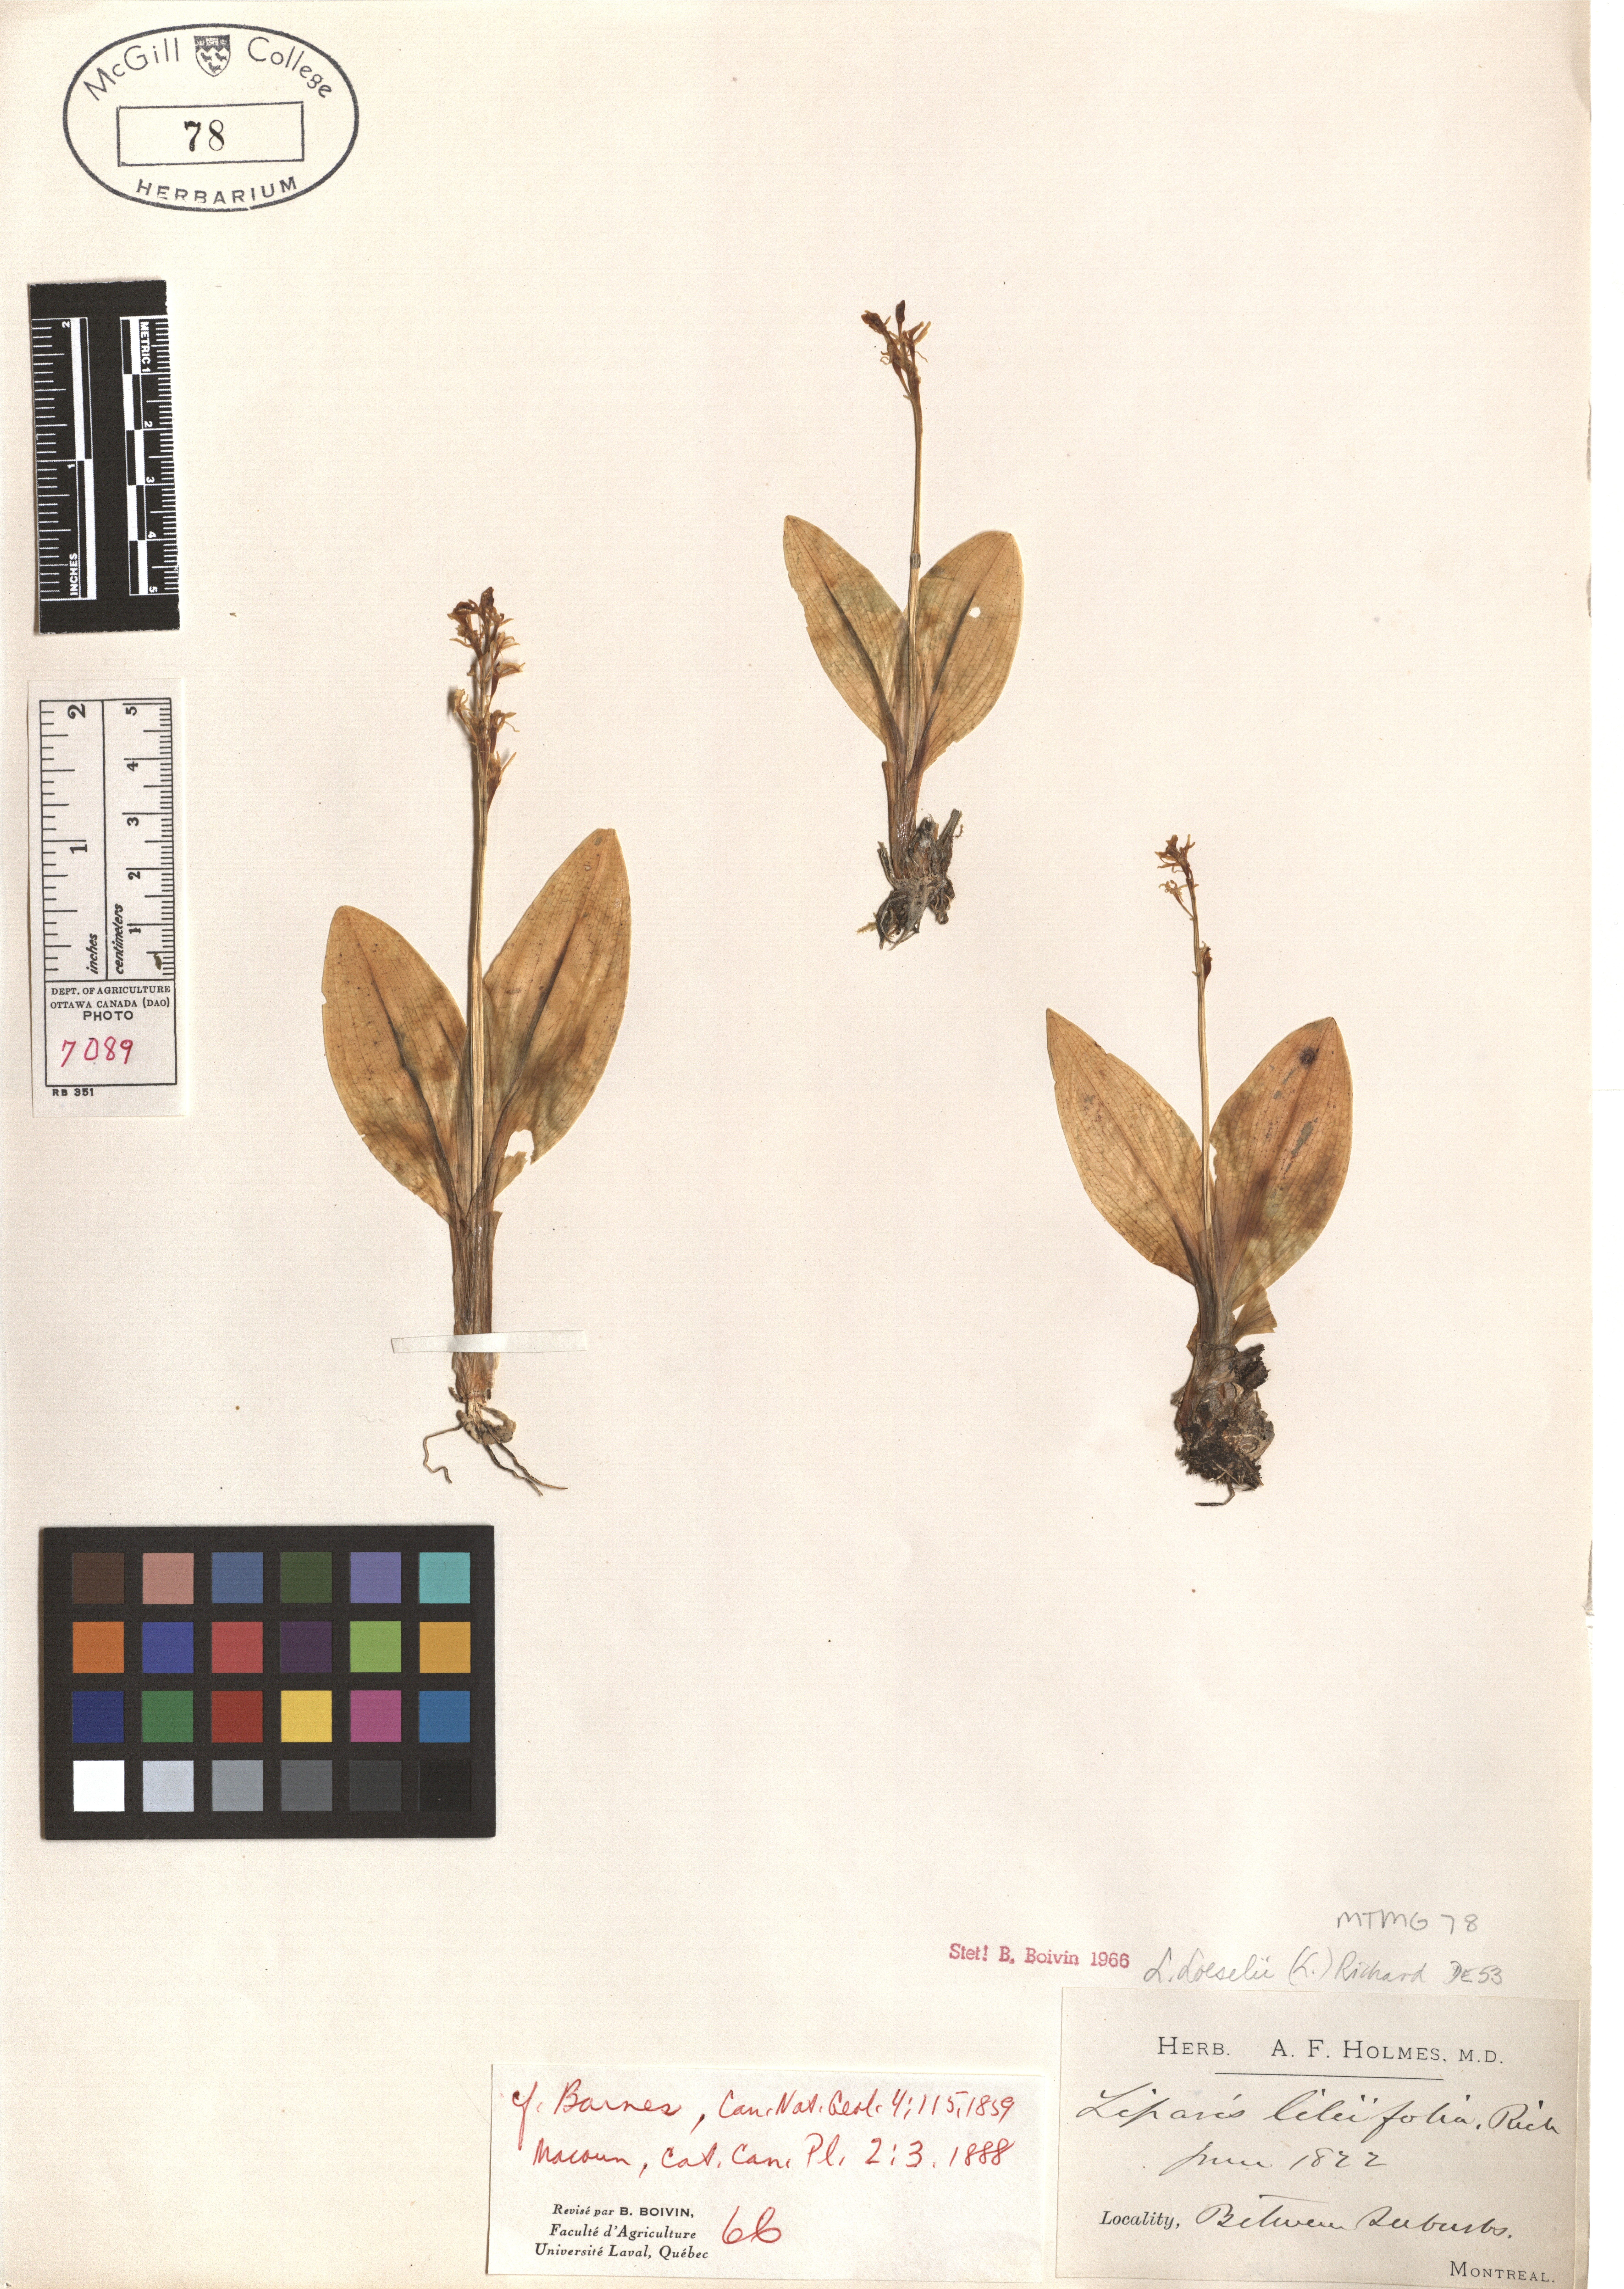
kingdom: Animalia
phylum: Arthropoda
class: Insecta
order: Coleoptera
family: Curculionidae
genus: Liparis
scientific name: Liparis loeselii
